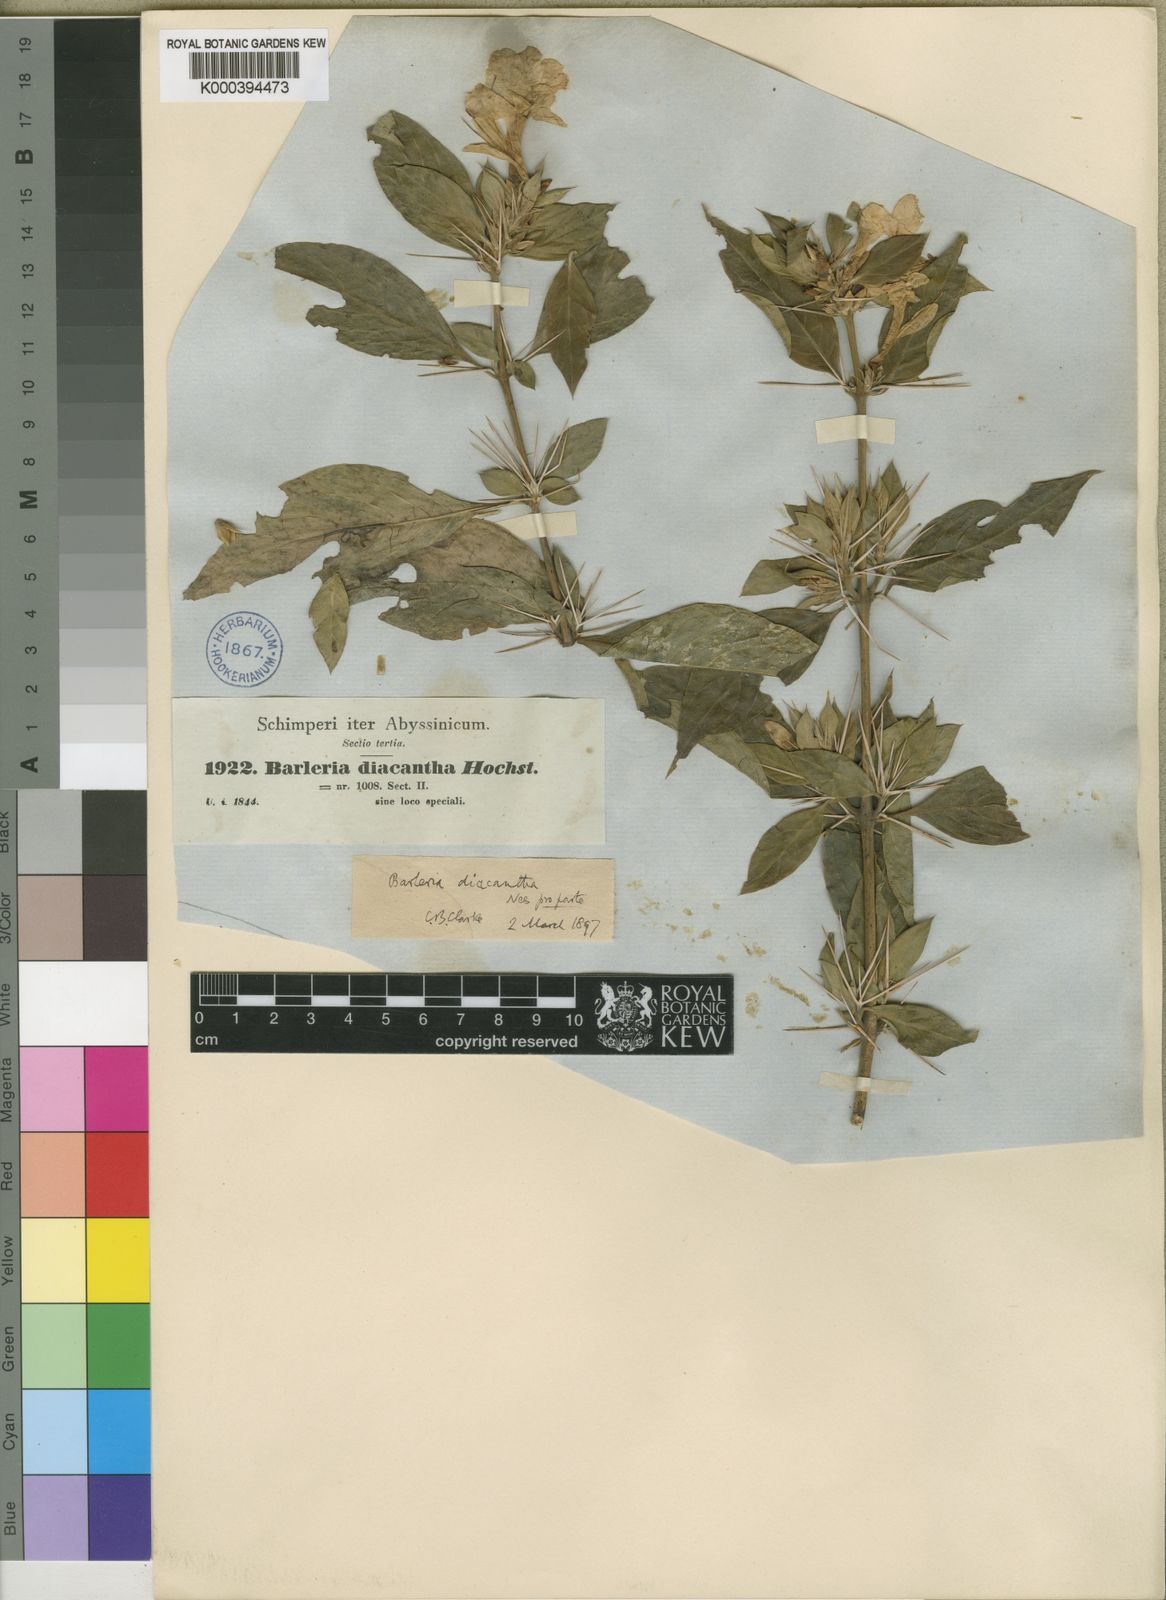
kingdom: Plantae
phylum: Tracheophyta
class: Magnoliopsida
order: Lamiales
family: Acanthaceae
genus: Barleria
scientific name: Barleria trispinosa
